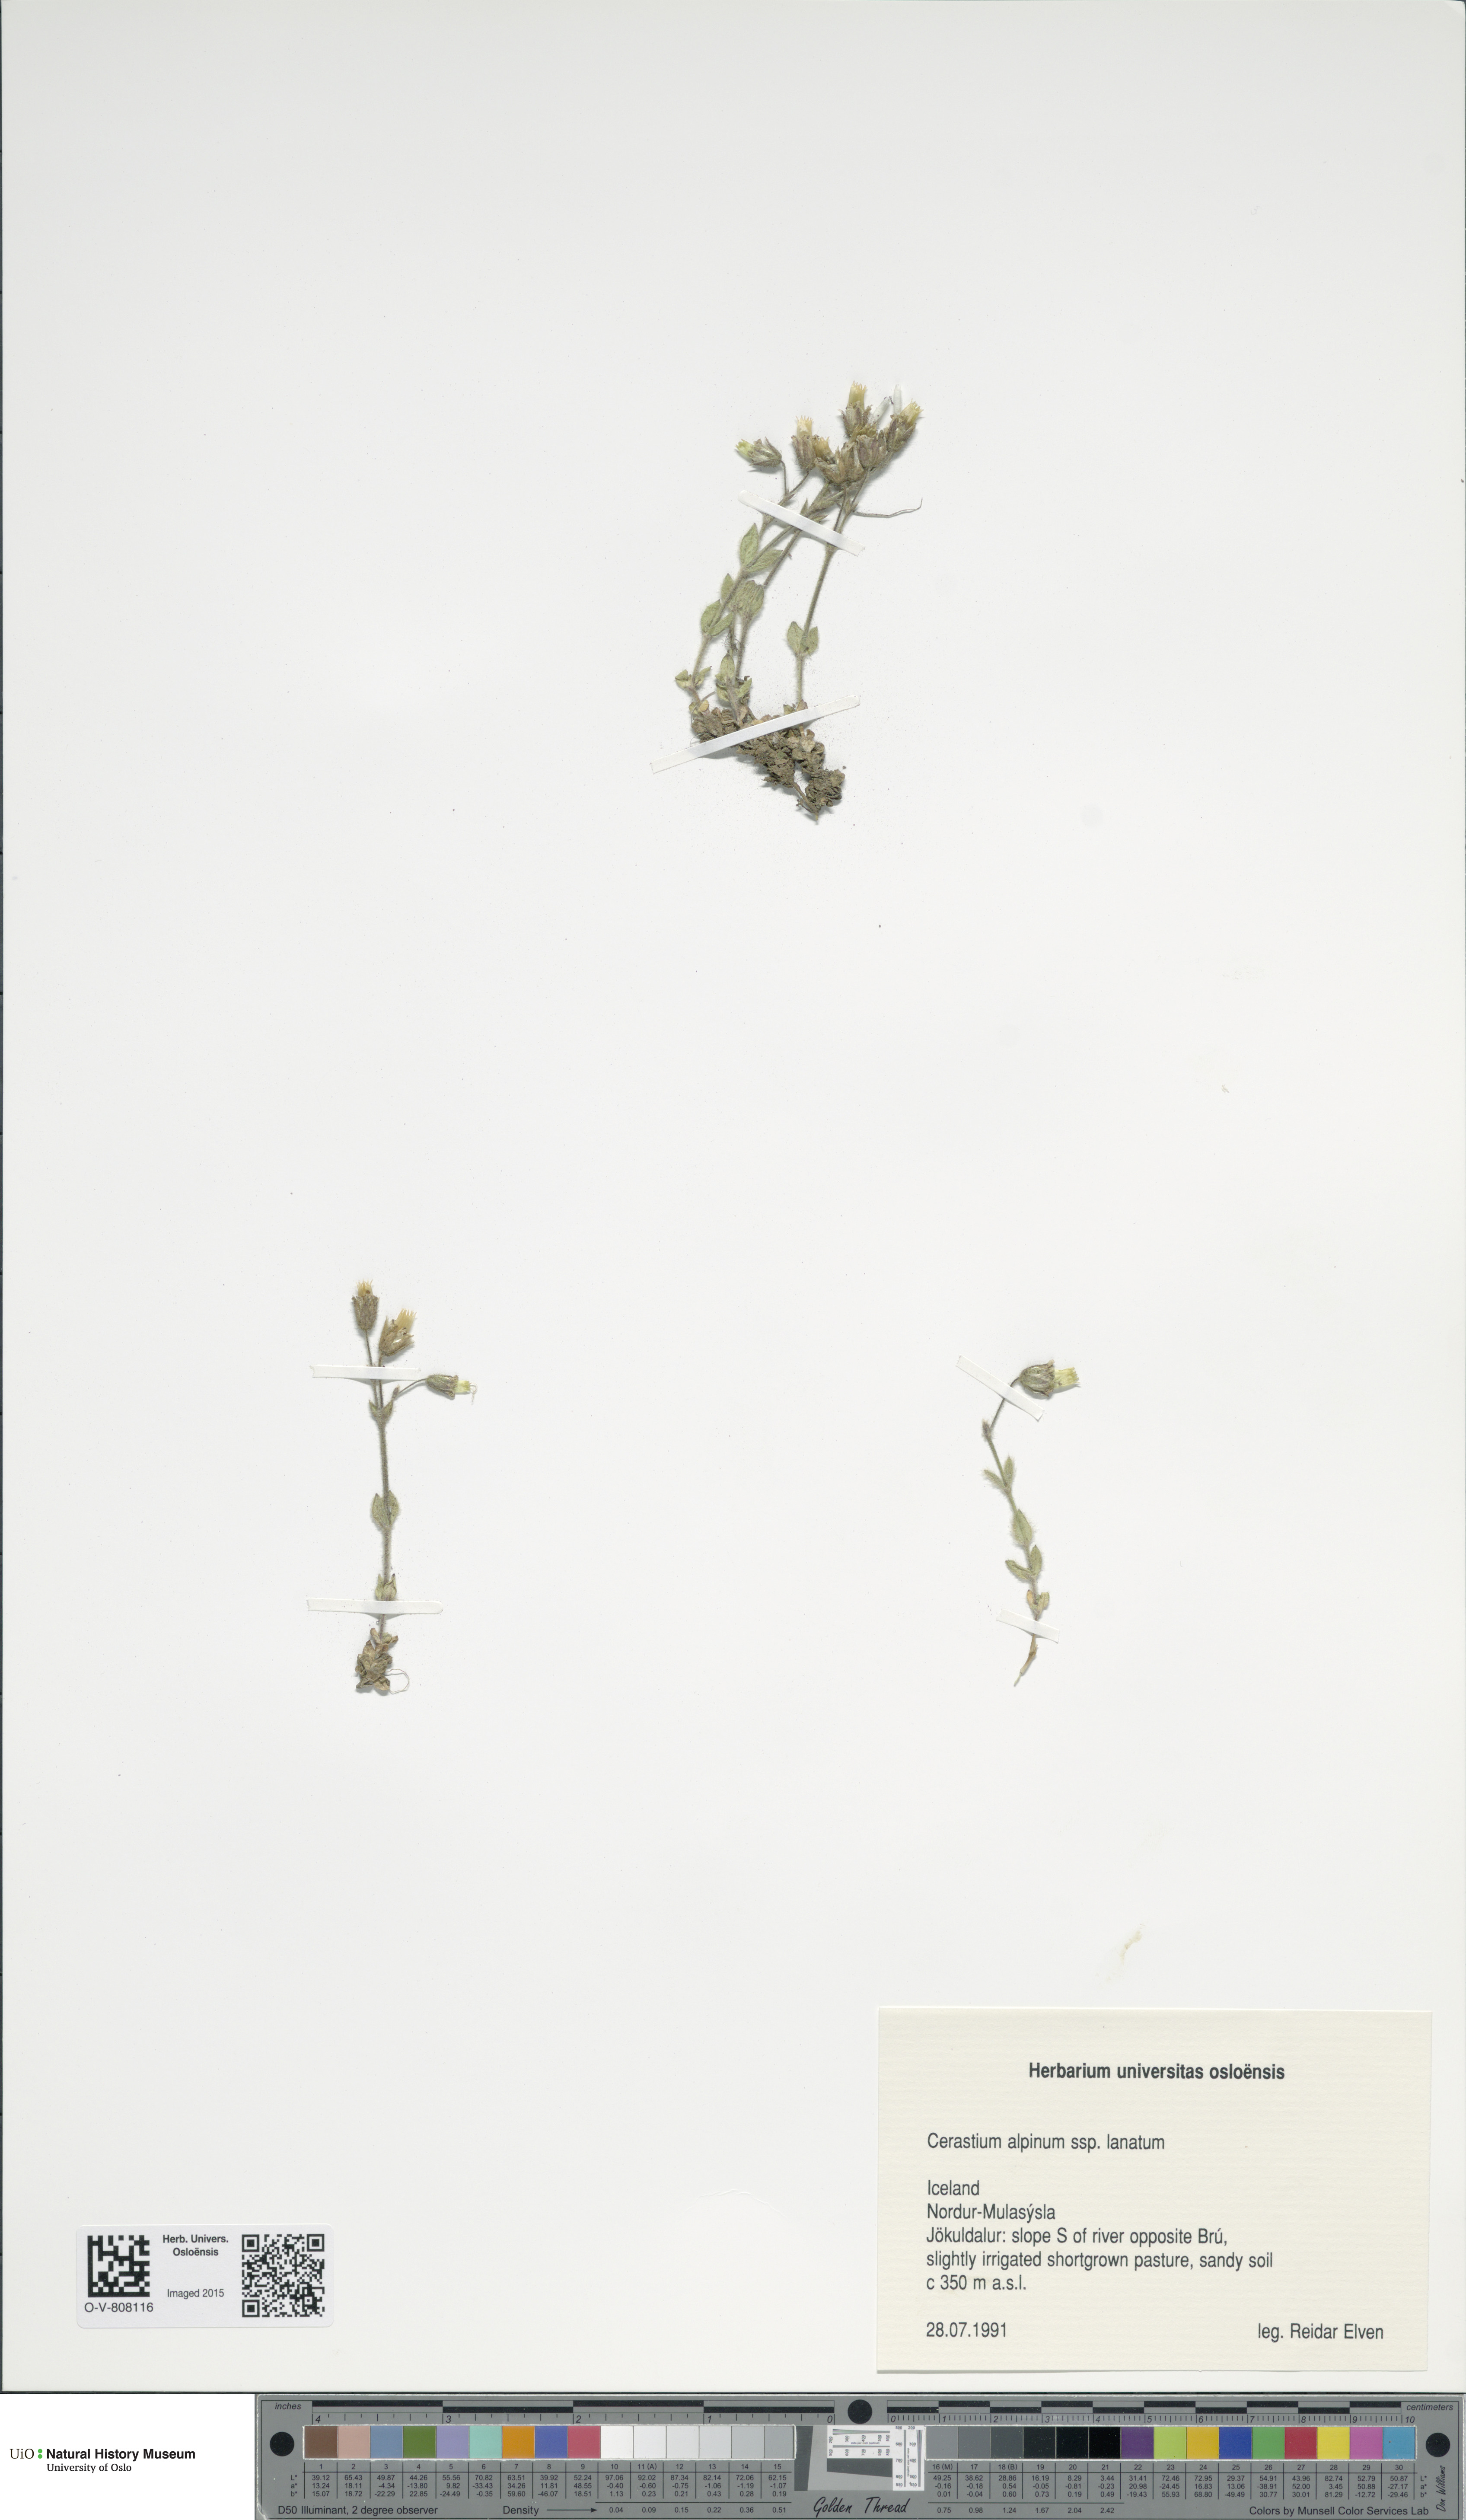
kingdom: Plantae
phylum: Tracheophyta
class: Magnoliopsida
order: Caryophyllales
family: Caryophyllaceae
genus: Cerastium
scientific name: Cerastium alpinum
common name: Alpine mouse-ear
